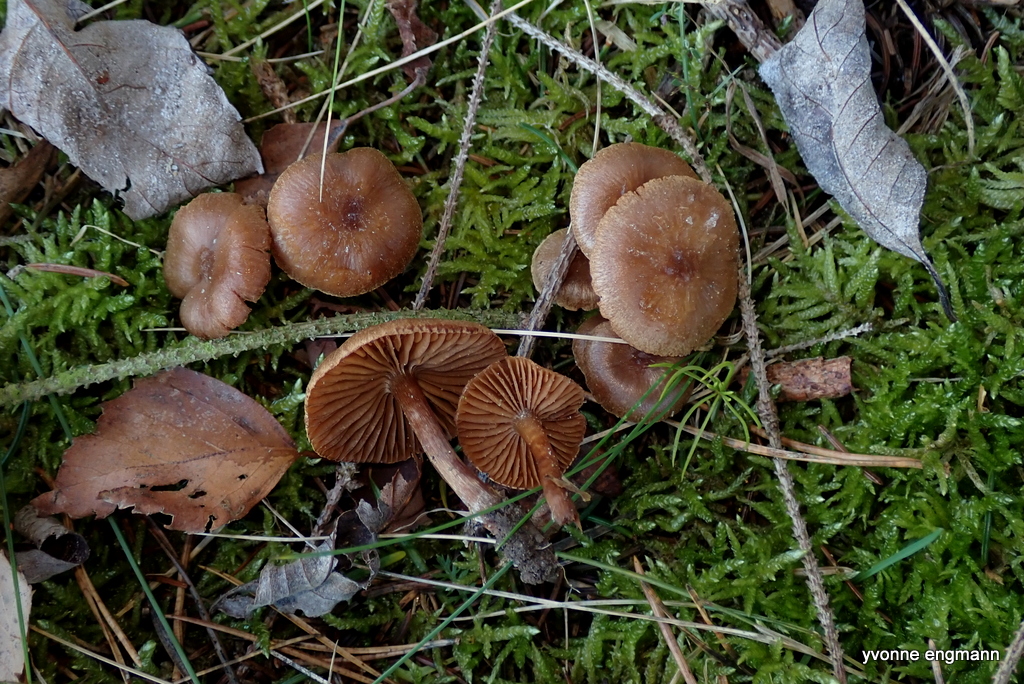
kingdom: Fungi
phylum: Basidiomycota
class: Agaricomycetes
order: Agaricales
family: Cortinariaceae
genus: Cortinarius
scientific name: Cortinarius
